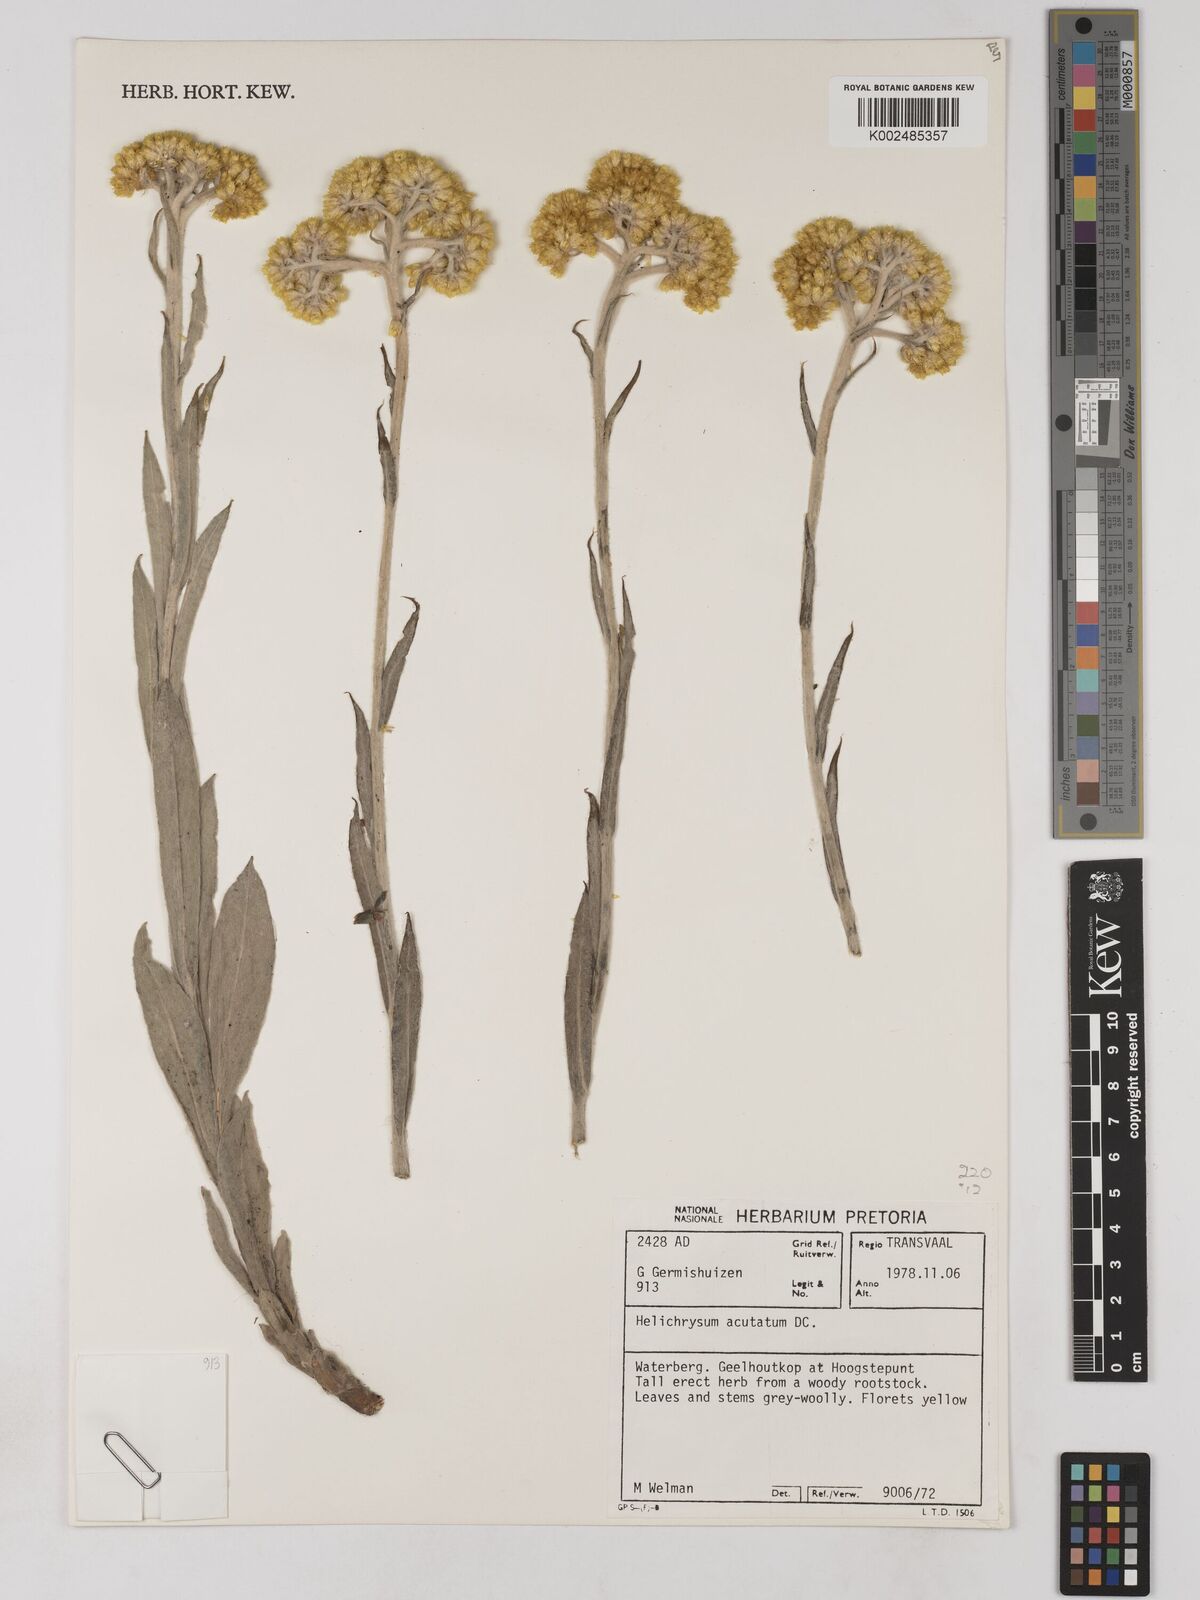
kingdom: Plantae
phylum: Tracheophyta
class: Magnoliopsida
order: Asterales
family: Asteraceae
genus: Helichrysum
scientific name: Helichrysum acutatum
